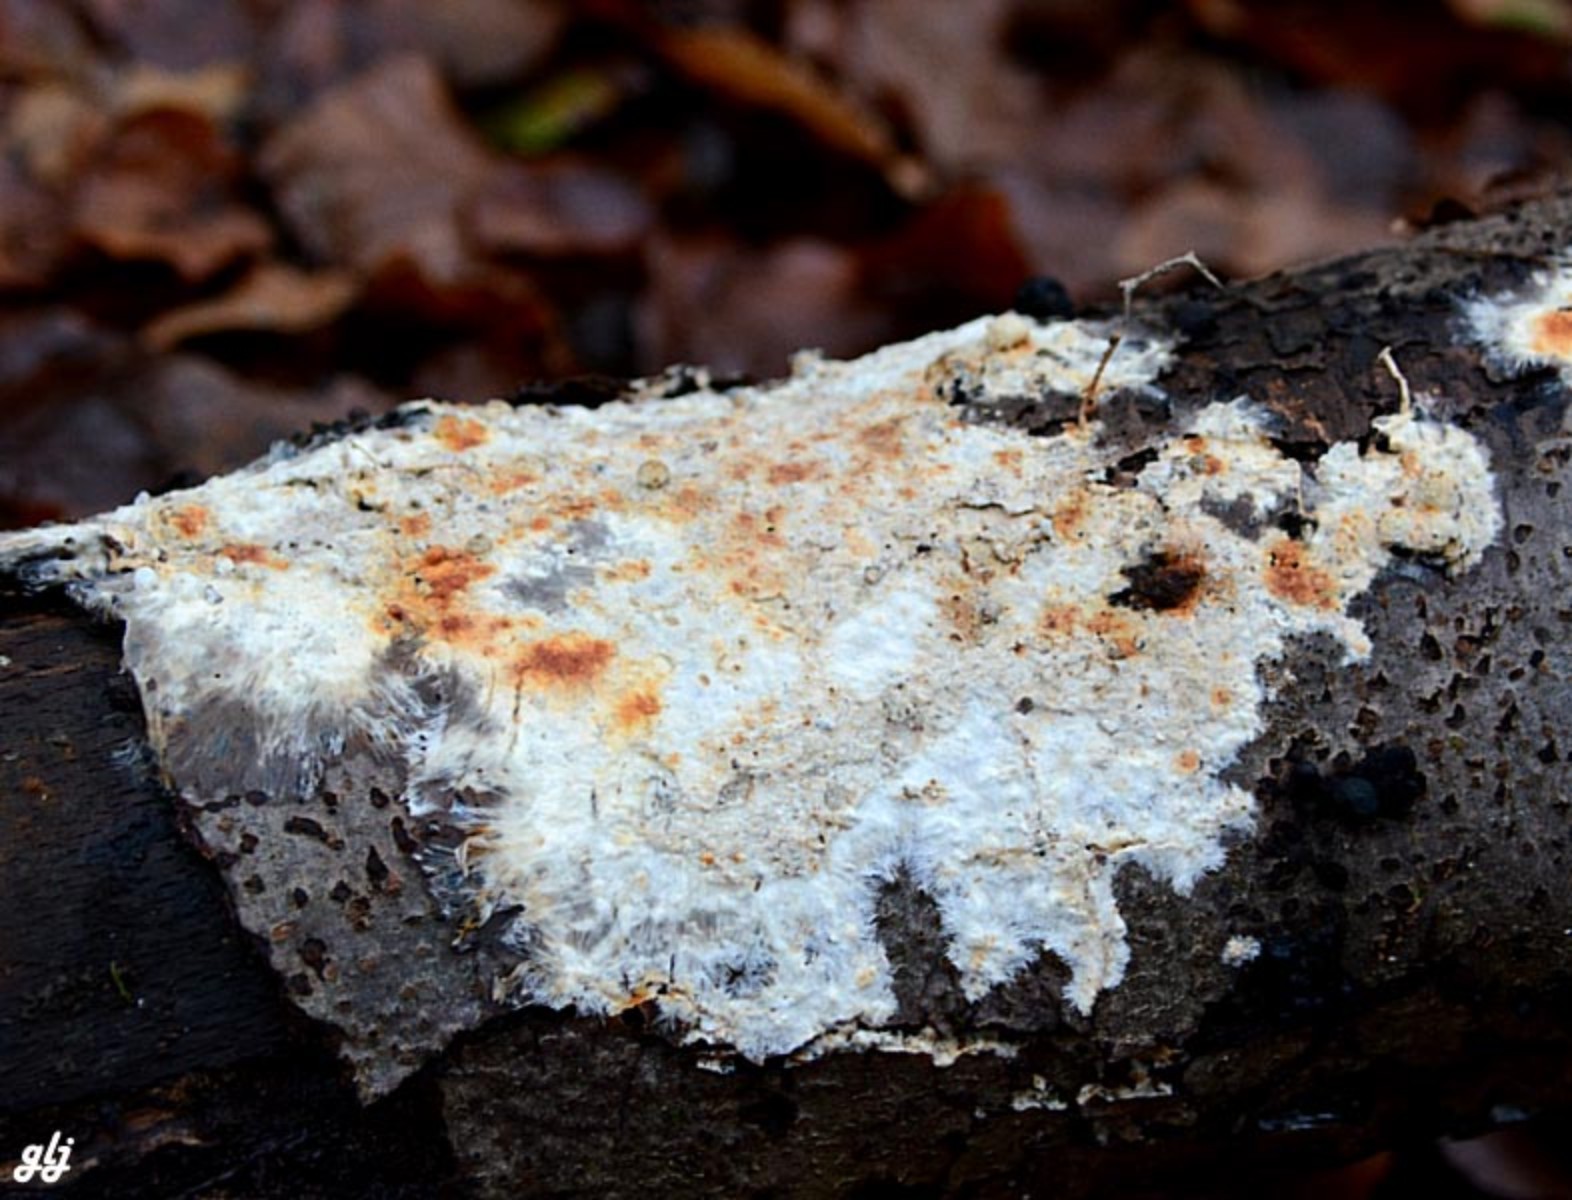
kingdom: Fungi
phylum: Basidiomycota
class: Agaricomycetes
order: Corticiales
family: Corticiaceae
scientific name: Corticiaceae
